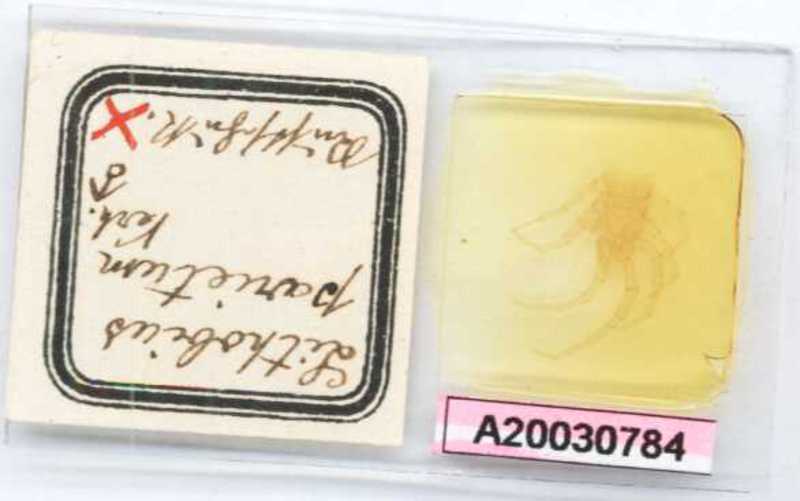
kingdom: Animalia
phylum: Arthropoda
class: Chilopoda
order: Lithobiomorpha
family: Lithobiidae
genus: Lithobius
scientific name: Lithobius parietum
